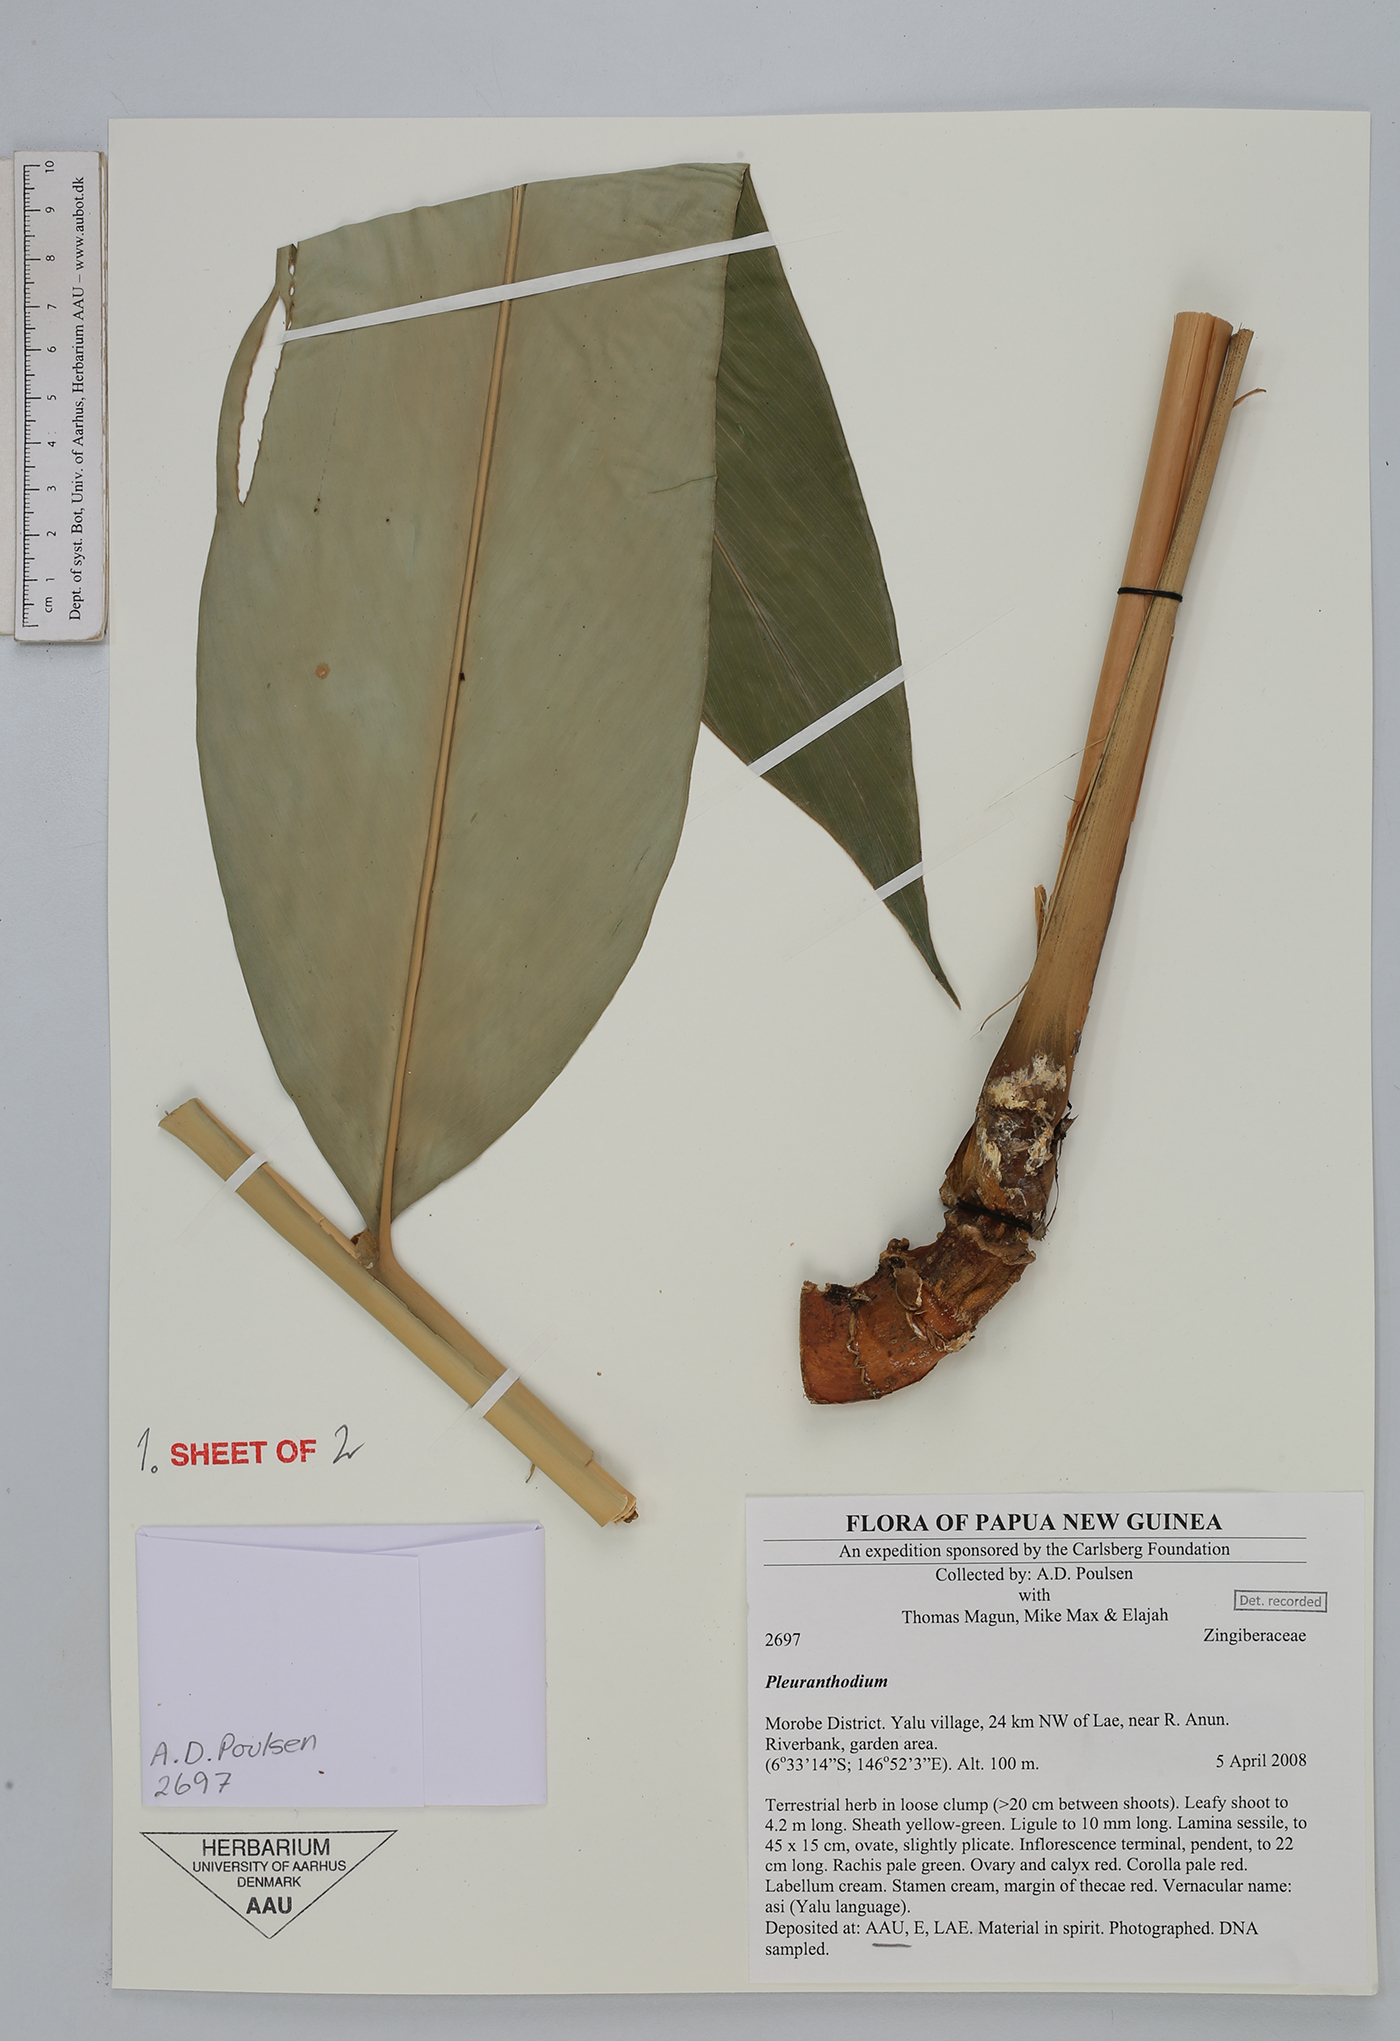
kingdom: Plantae
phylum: Tracheophyta
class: Liliopsida
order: Zingiberales
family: Zingiberaceae
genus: Pleuranthodium
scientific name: Pleuranthodium
